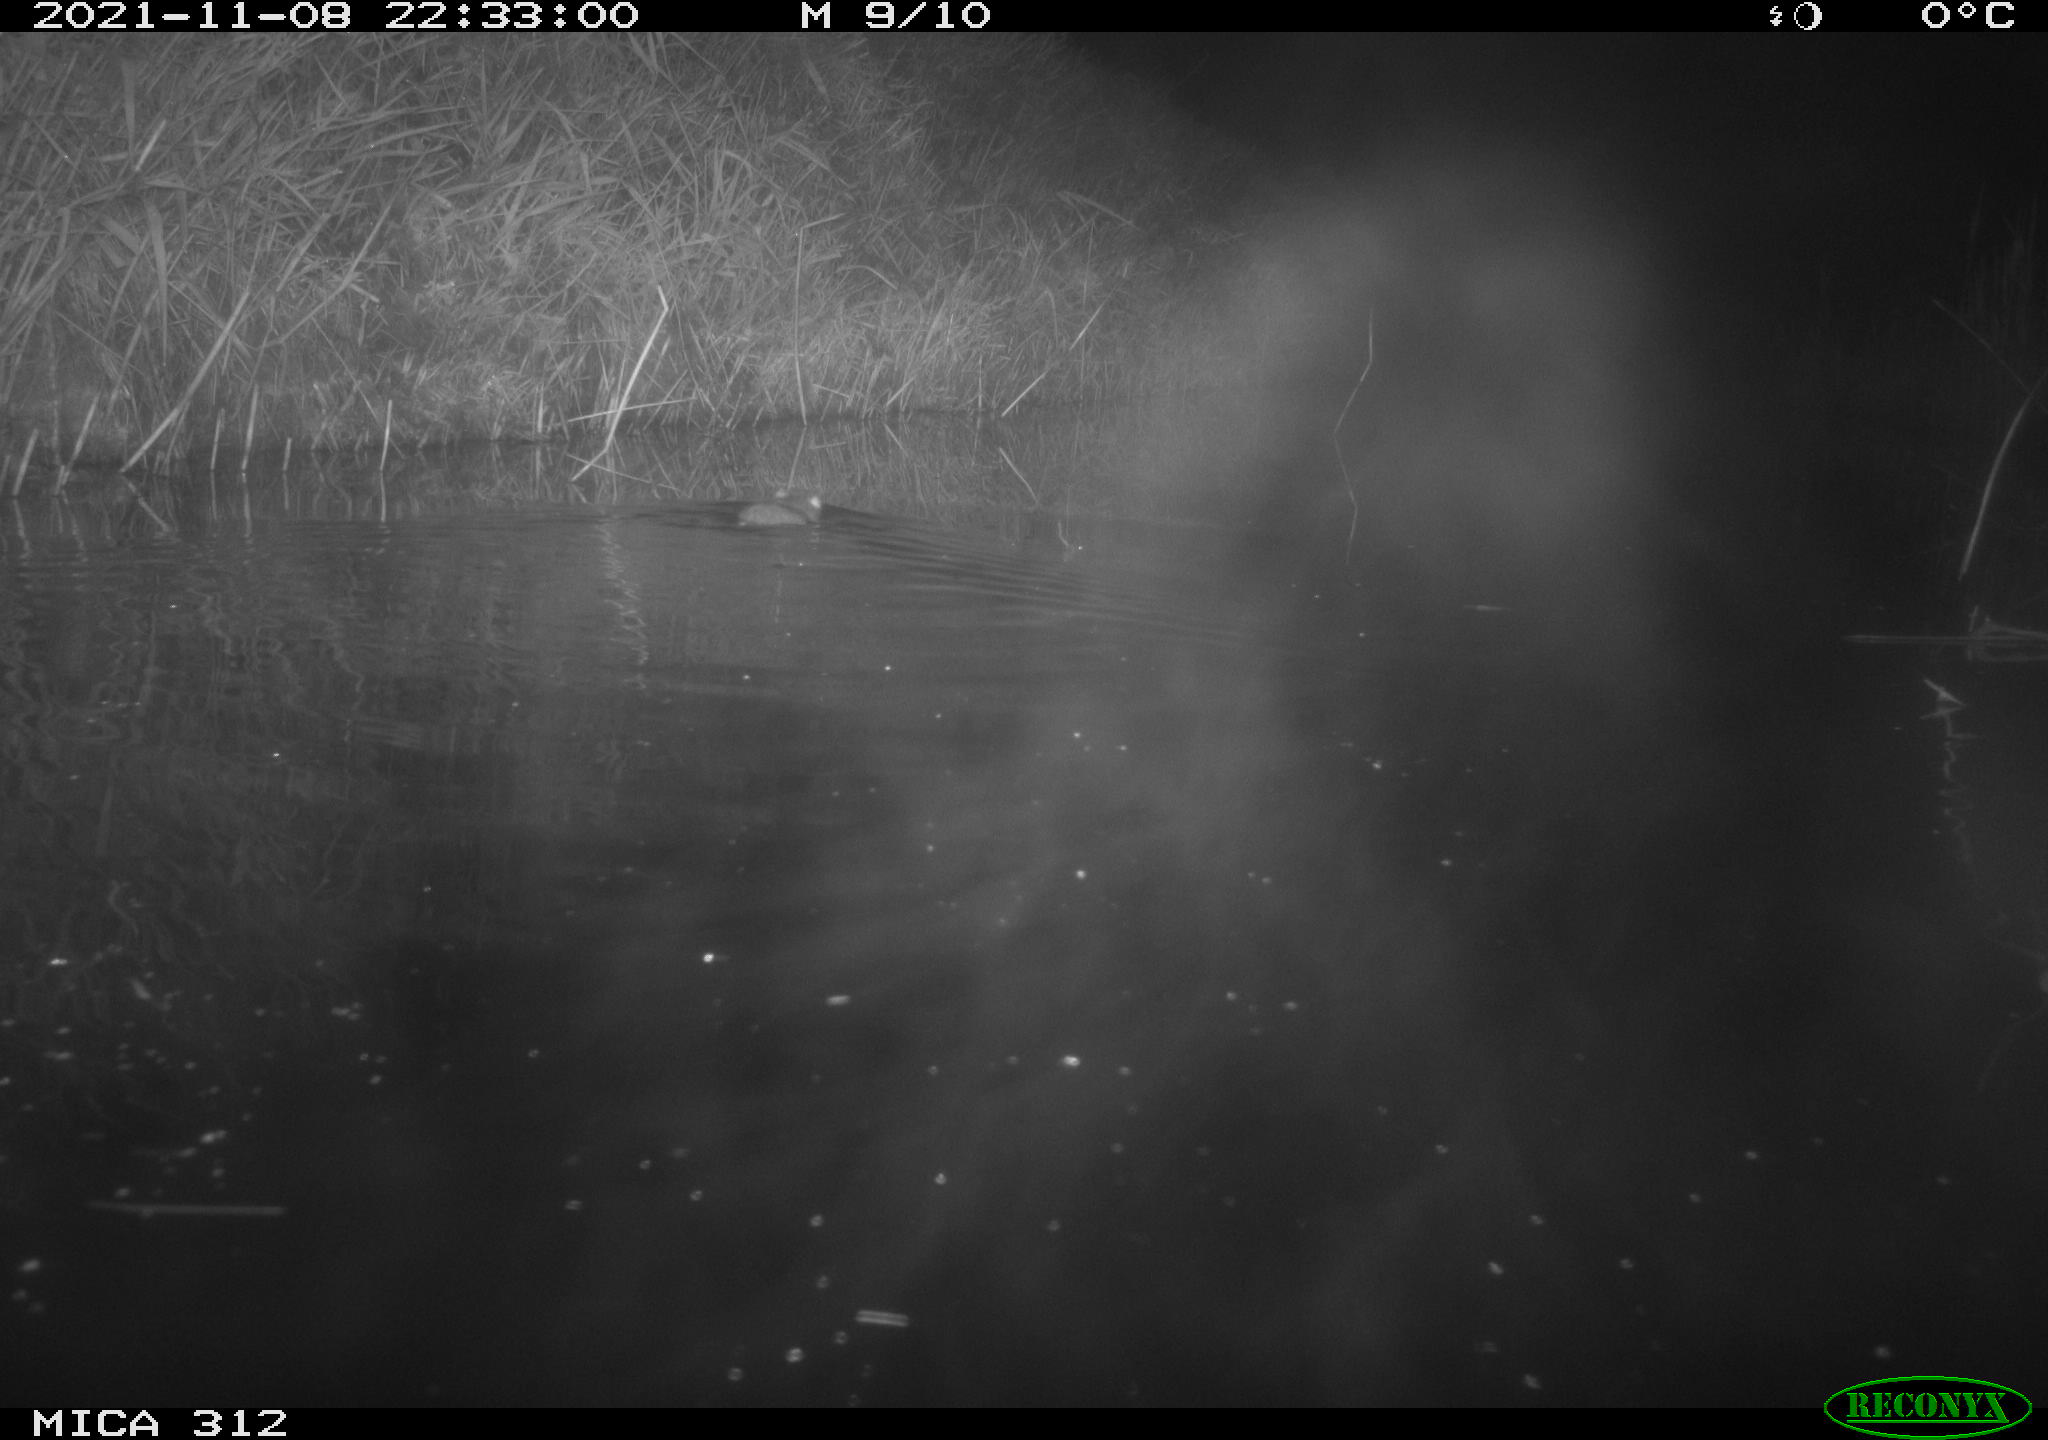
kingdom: Animalia
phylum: Chordata
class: Mammalia
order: Rodentia
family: Muridae
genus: Rattus
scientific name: Rattus norvegicus
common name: Brown rat
